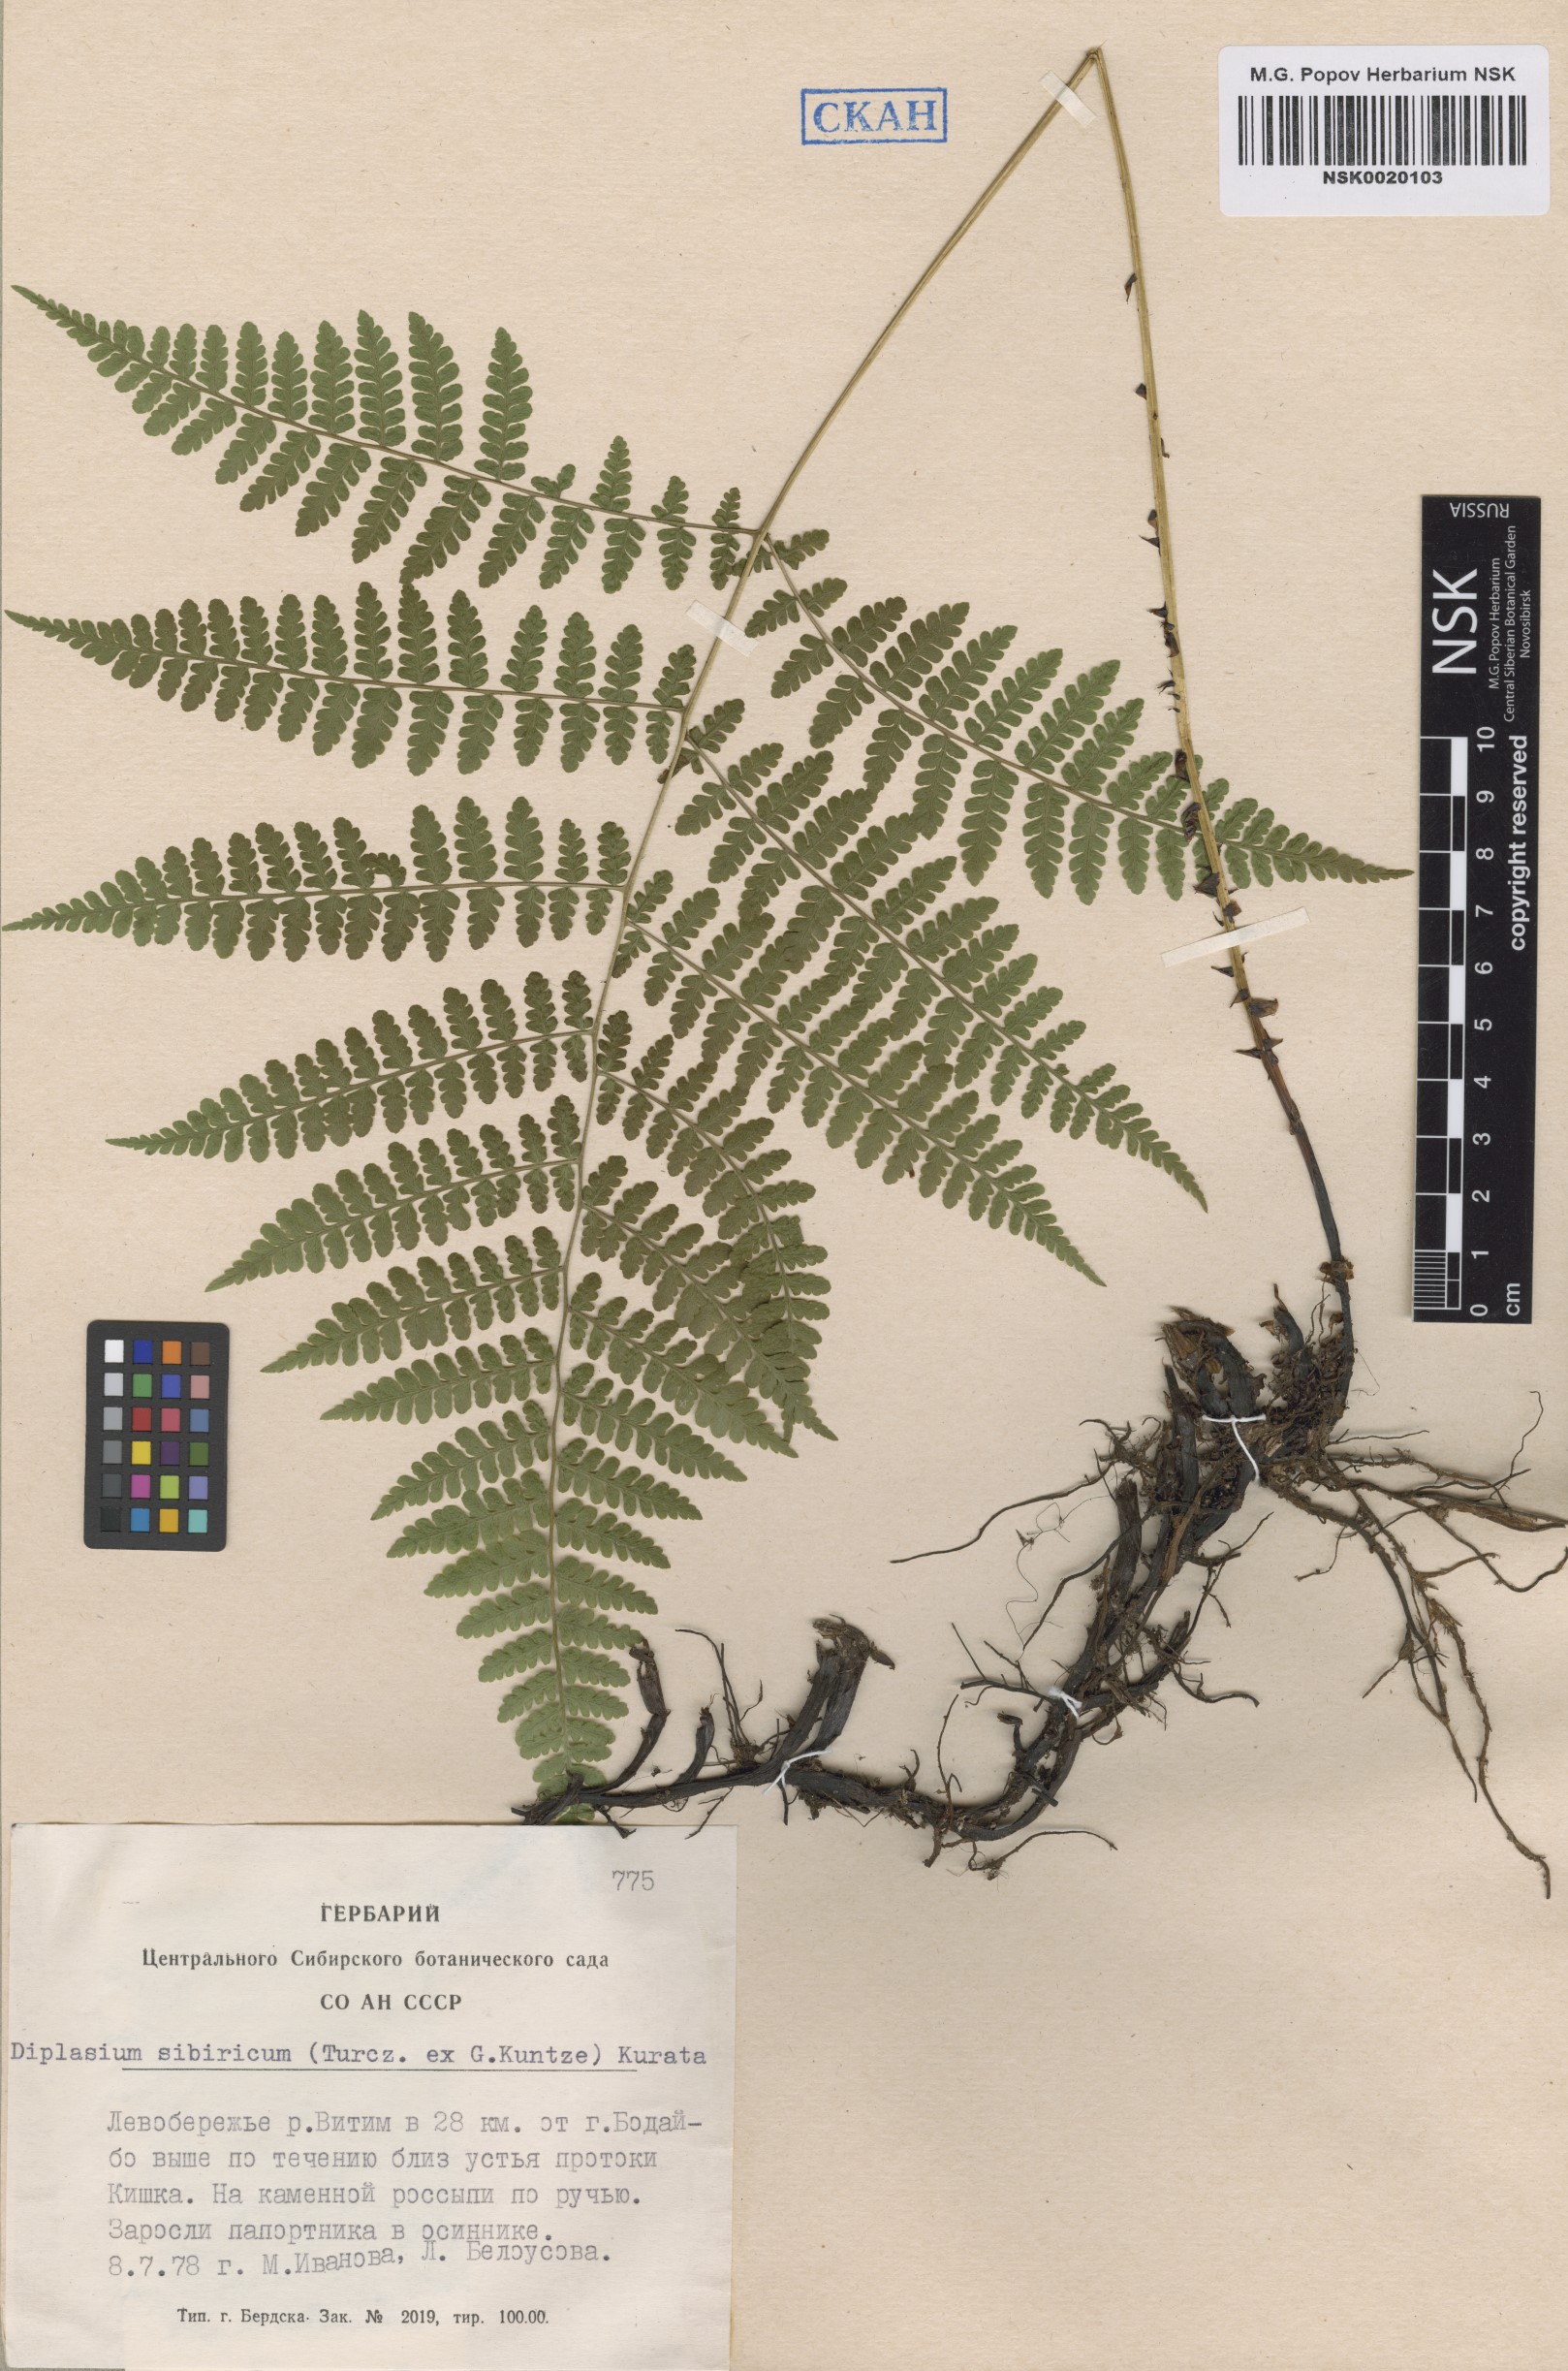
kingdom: Plantae
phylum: Tracheophyta
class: Polypodiopsida
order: Polypodiales
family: Athyriaceae
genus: Diplazium
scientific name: Diplazium sibiricum
